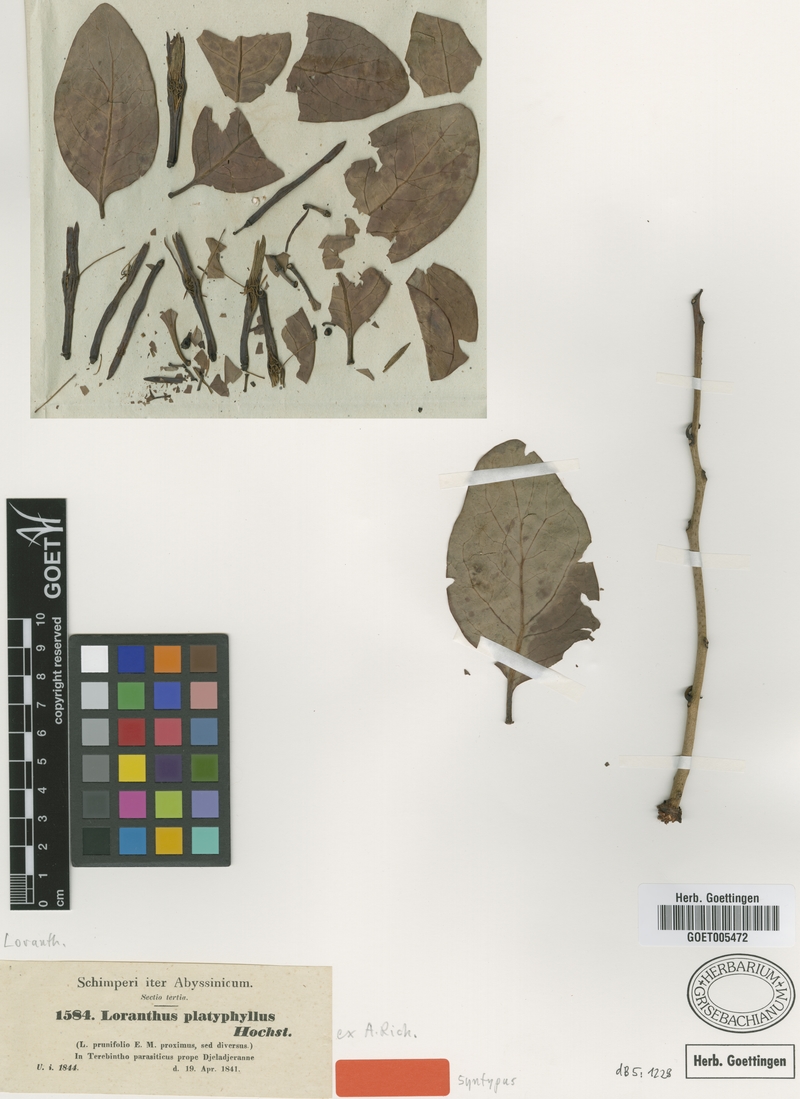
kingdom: Plantae
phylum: Tracheophyta
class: Magnoliopsida
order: Santalales
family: Loranthaceae
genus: Agelanthus
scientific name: Agelanthus platyphyllus
